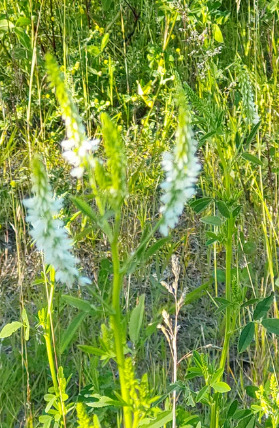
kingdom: Plantae
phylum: Tracheophyta
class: Magnoliopsida
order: Fabales
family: Fabaceae
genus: Melilotus
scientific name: Melilotus albus
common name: Hvid stenkløver
